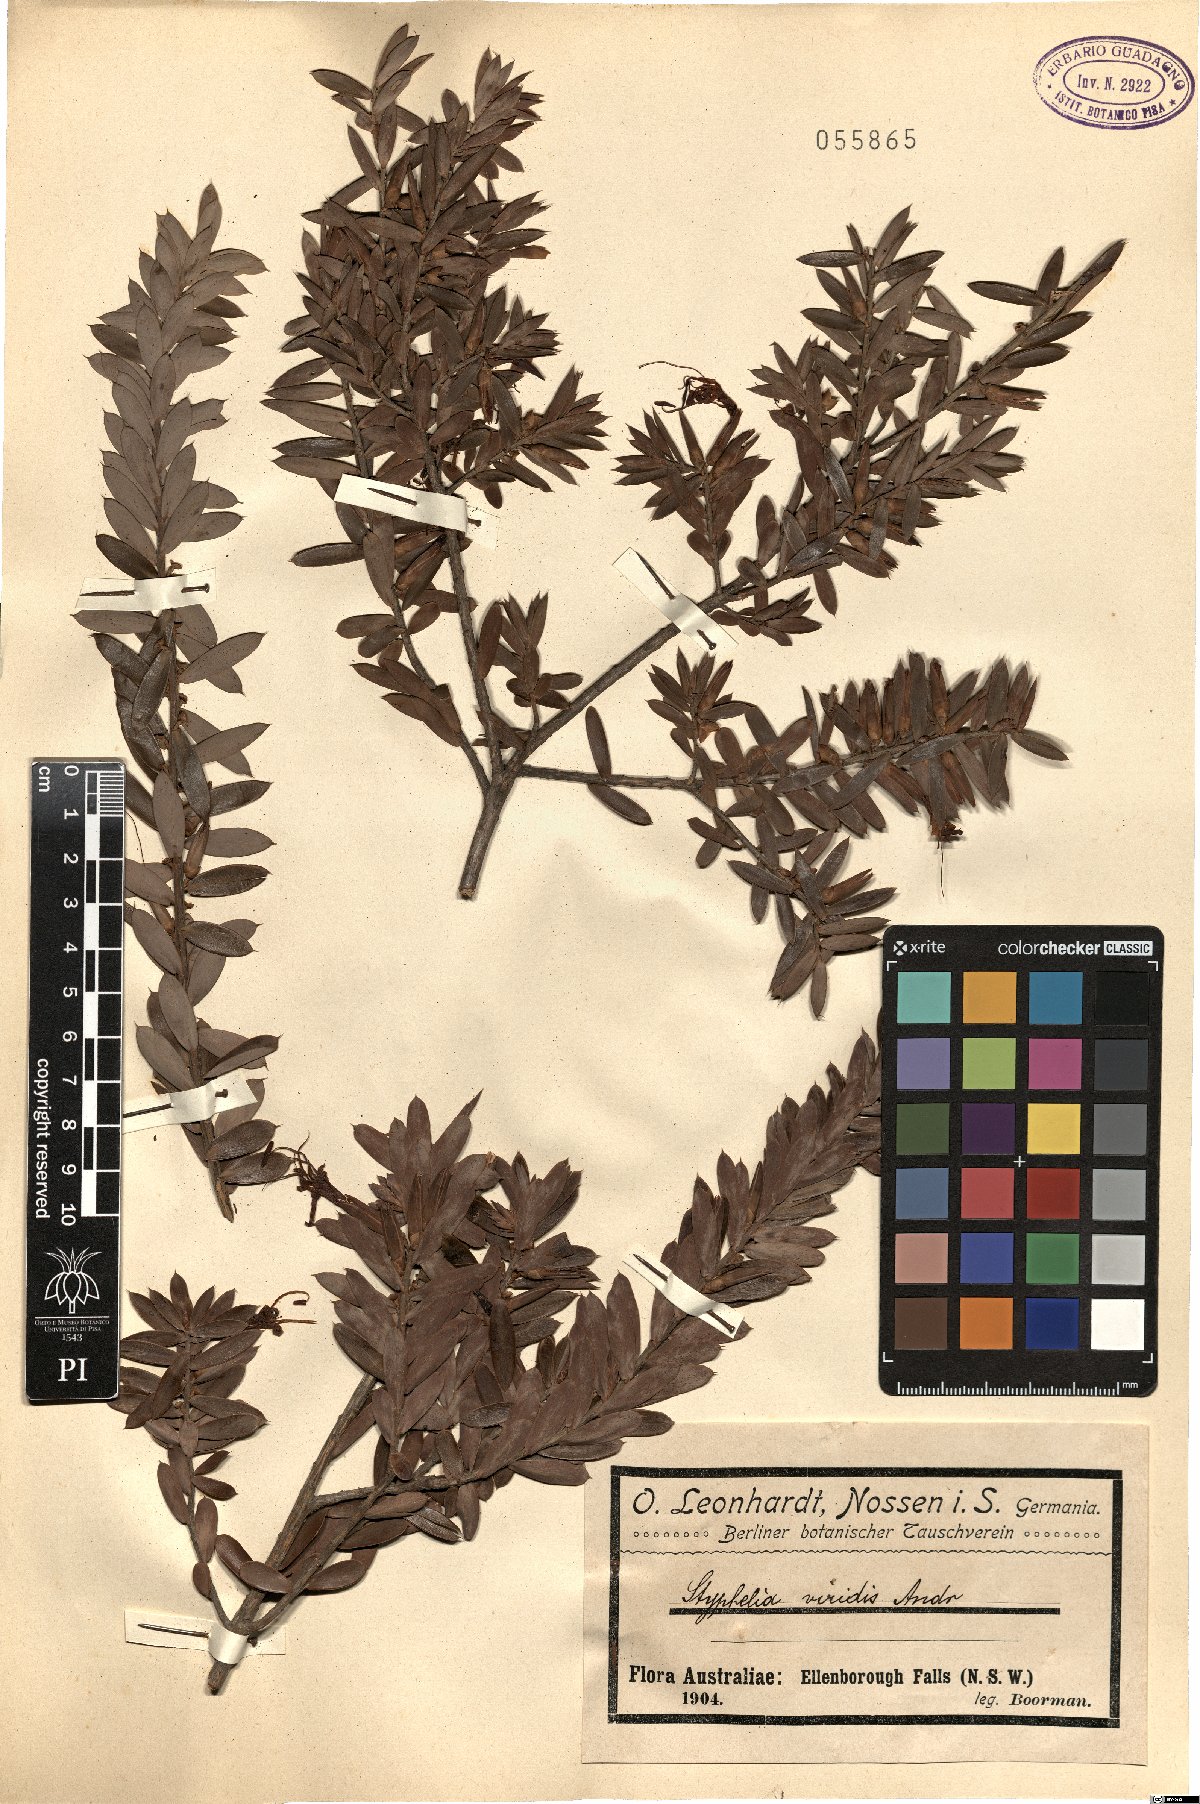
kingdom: Plantae
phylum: Tracheophyta
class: Magnoliopsida
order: Ericales
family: Ericaceae
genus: Styphelia
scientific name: Styphelia viridis
